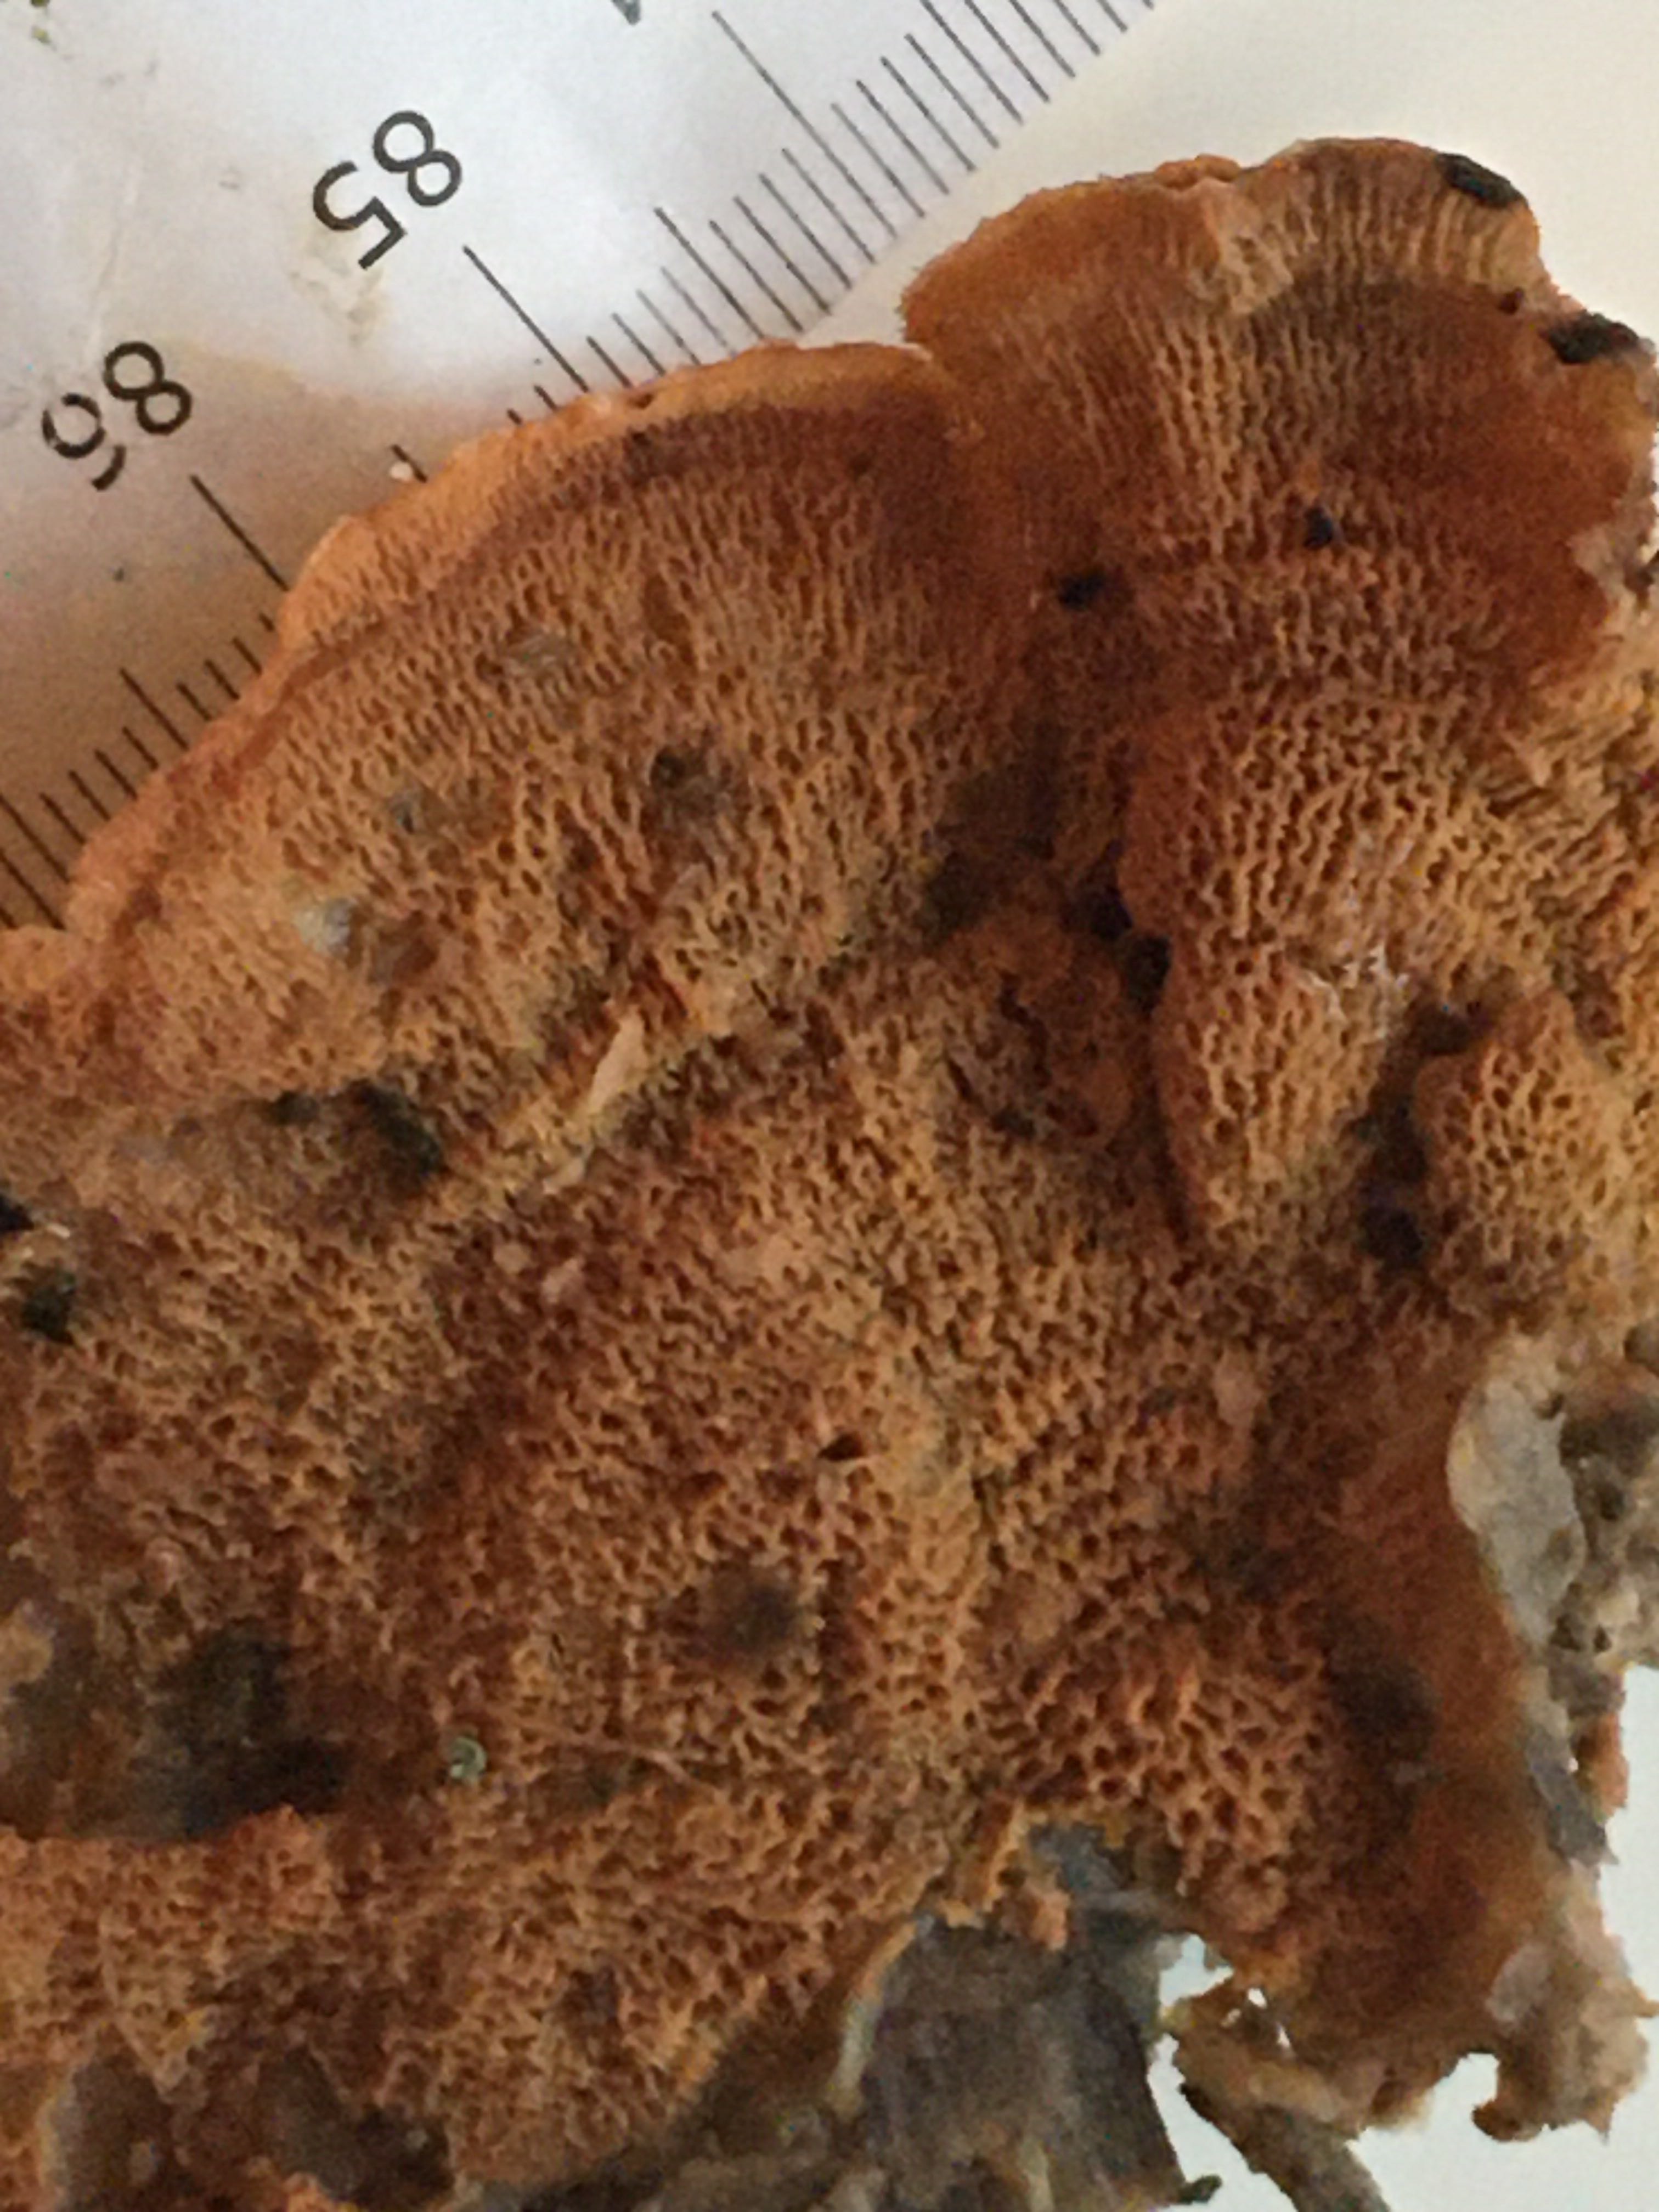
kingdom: Fungi
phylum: Basidiomycota
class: Agaricomycetes
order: Polyporales
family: Meruliaceae
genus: Phlebia
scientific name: Phlebia tremellosa
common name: bævrende åresvamp
